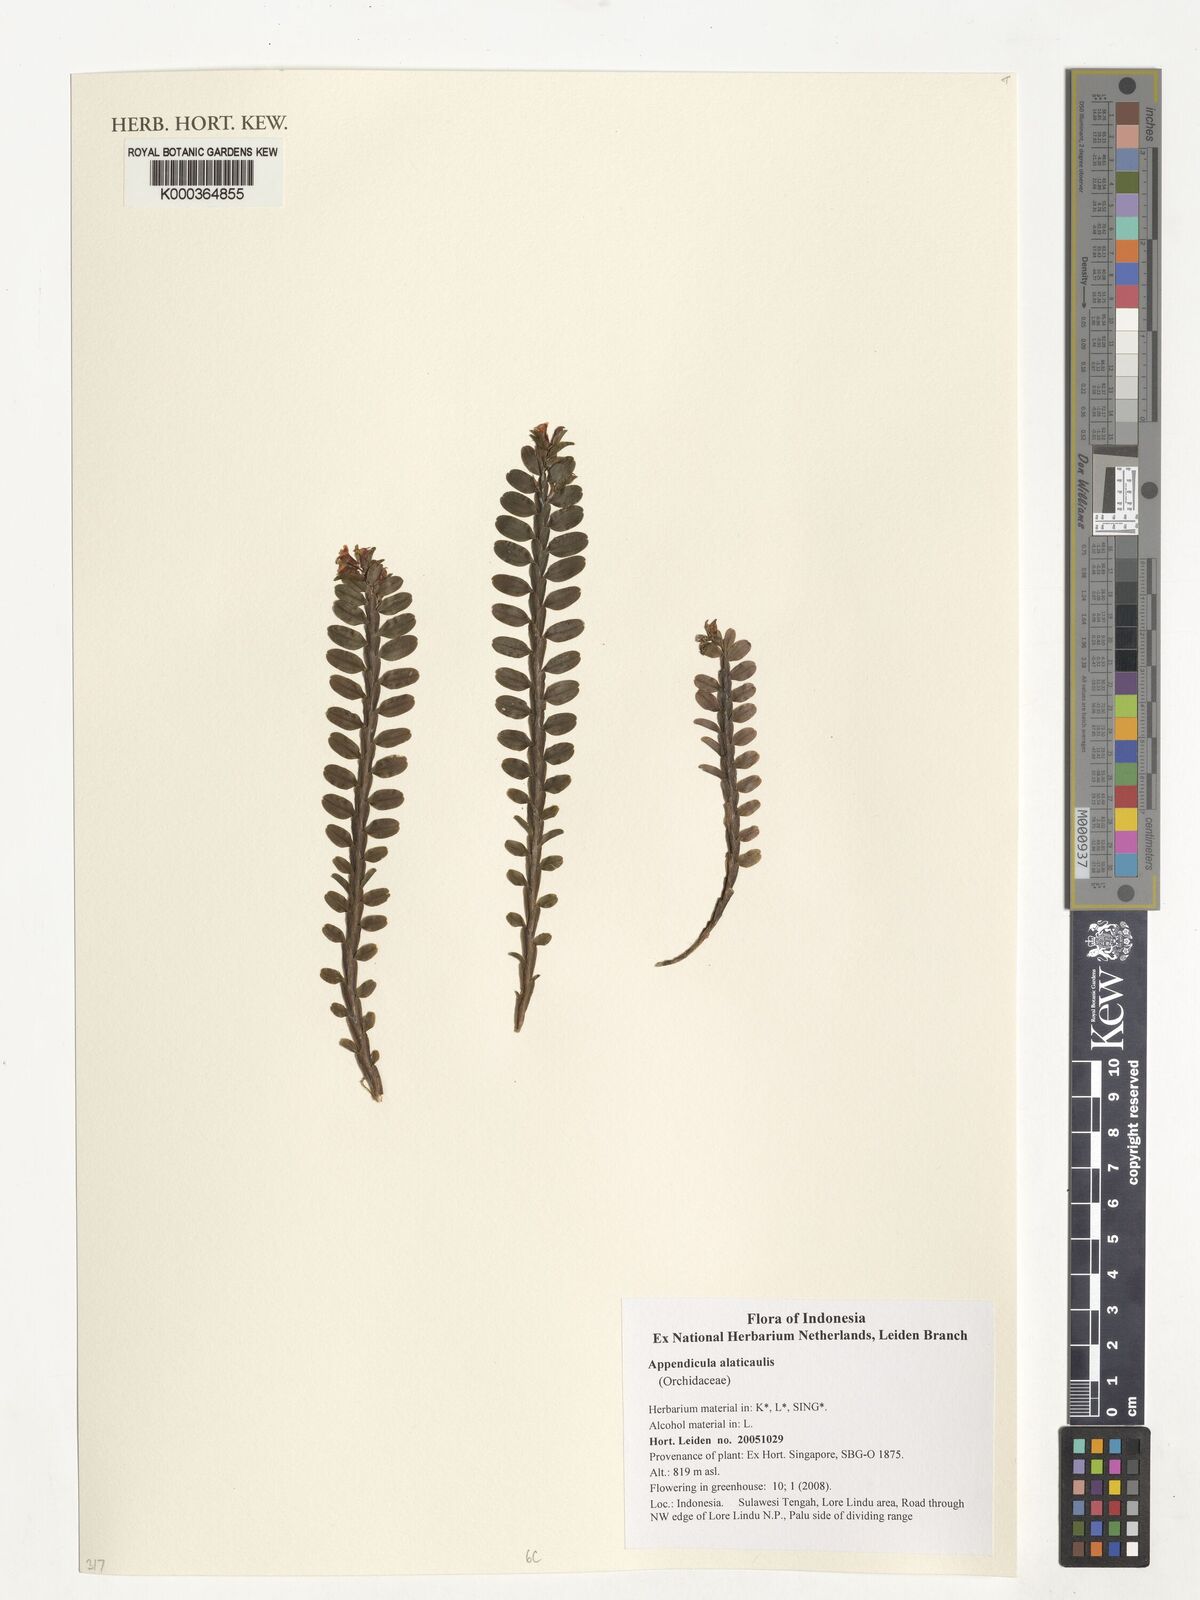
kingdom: Plantae
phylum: Tracheophyta
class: Liliopsida
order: Asparagales
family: Orchidaceae
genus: Appendicula
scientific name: Appendicula alatocaulis
